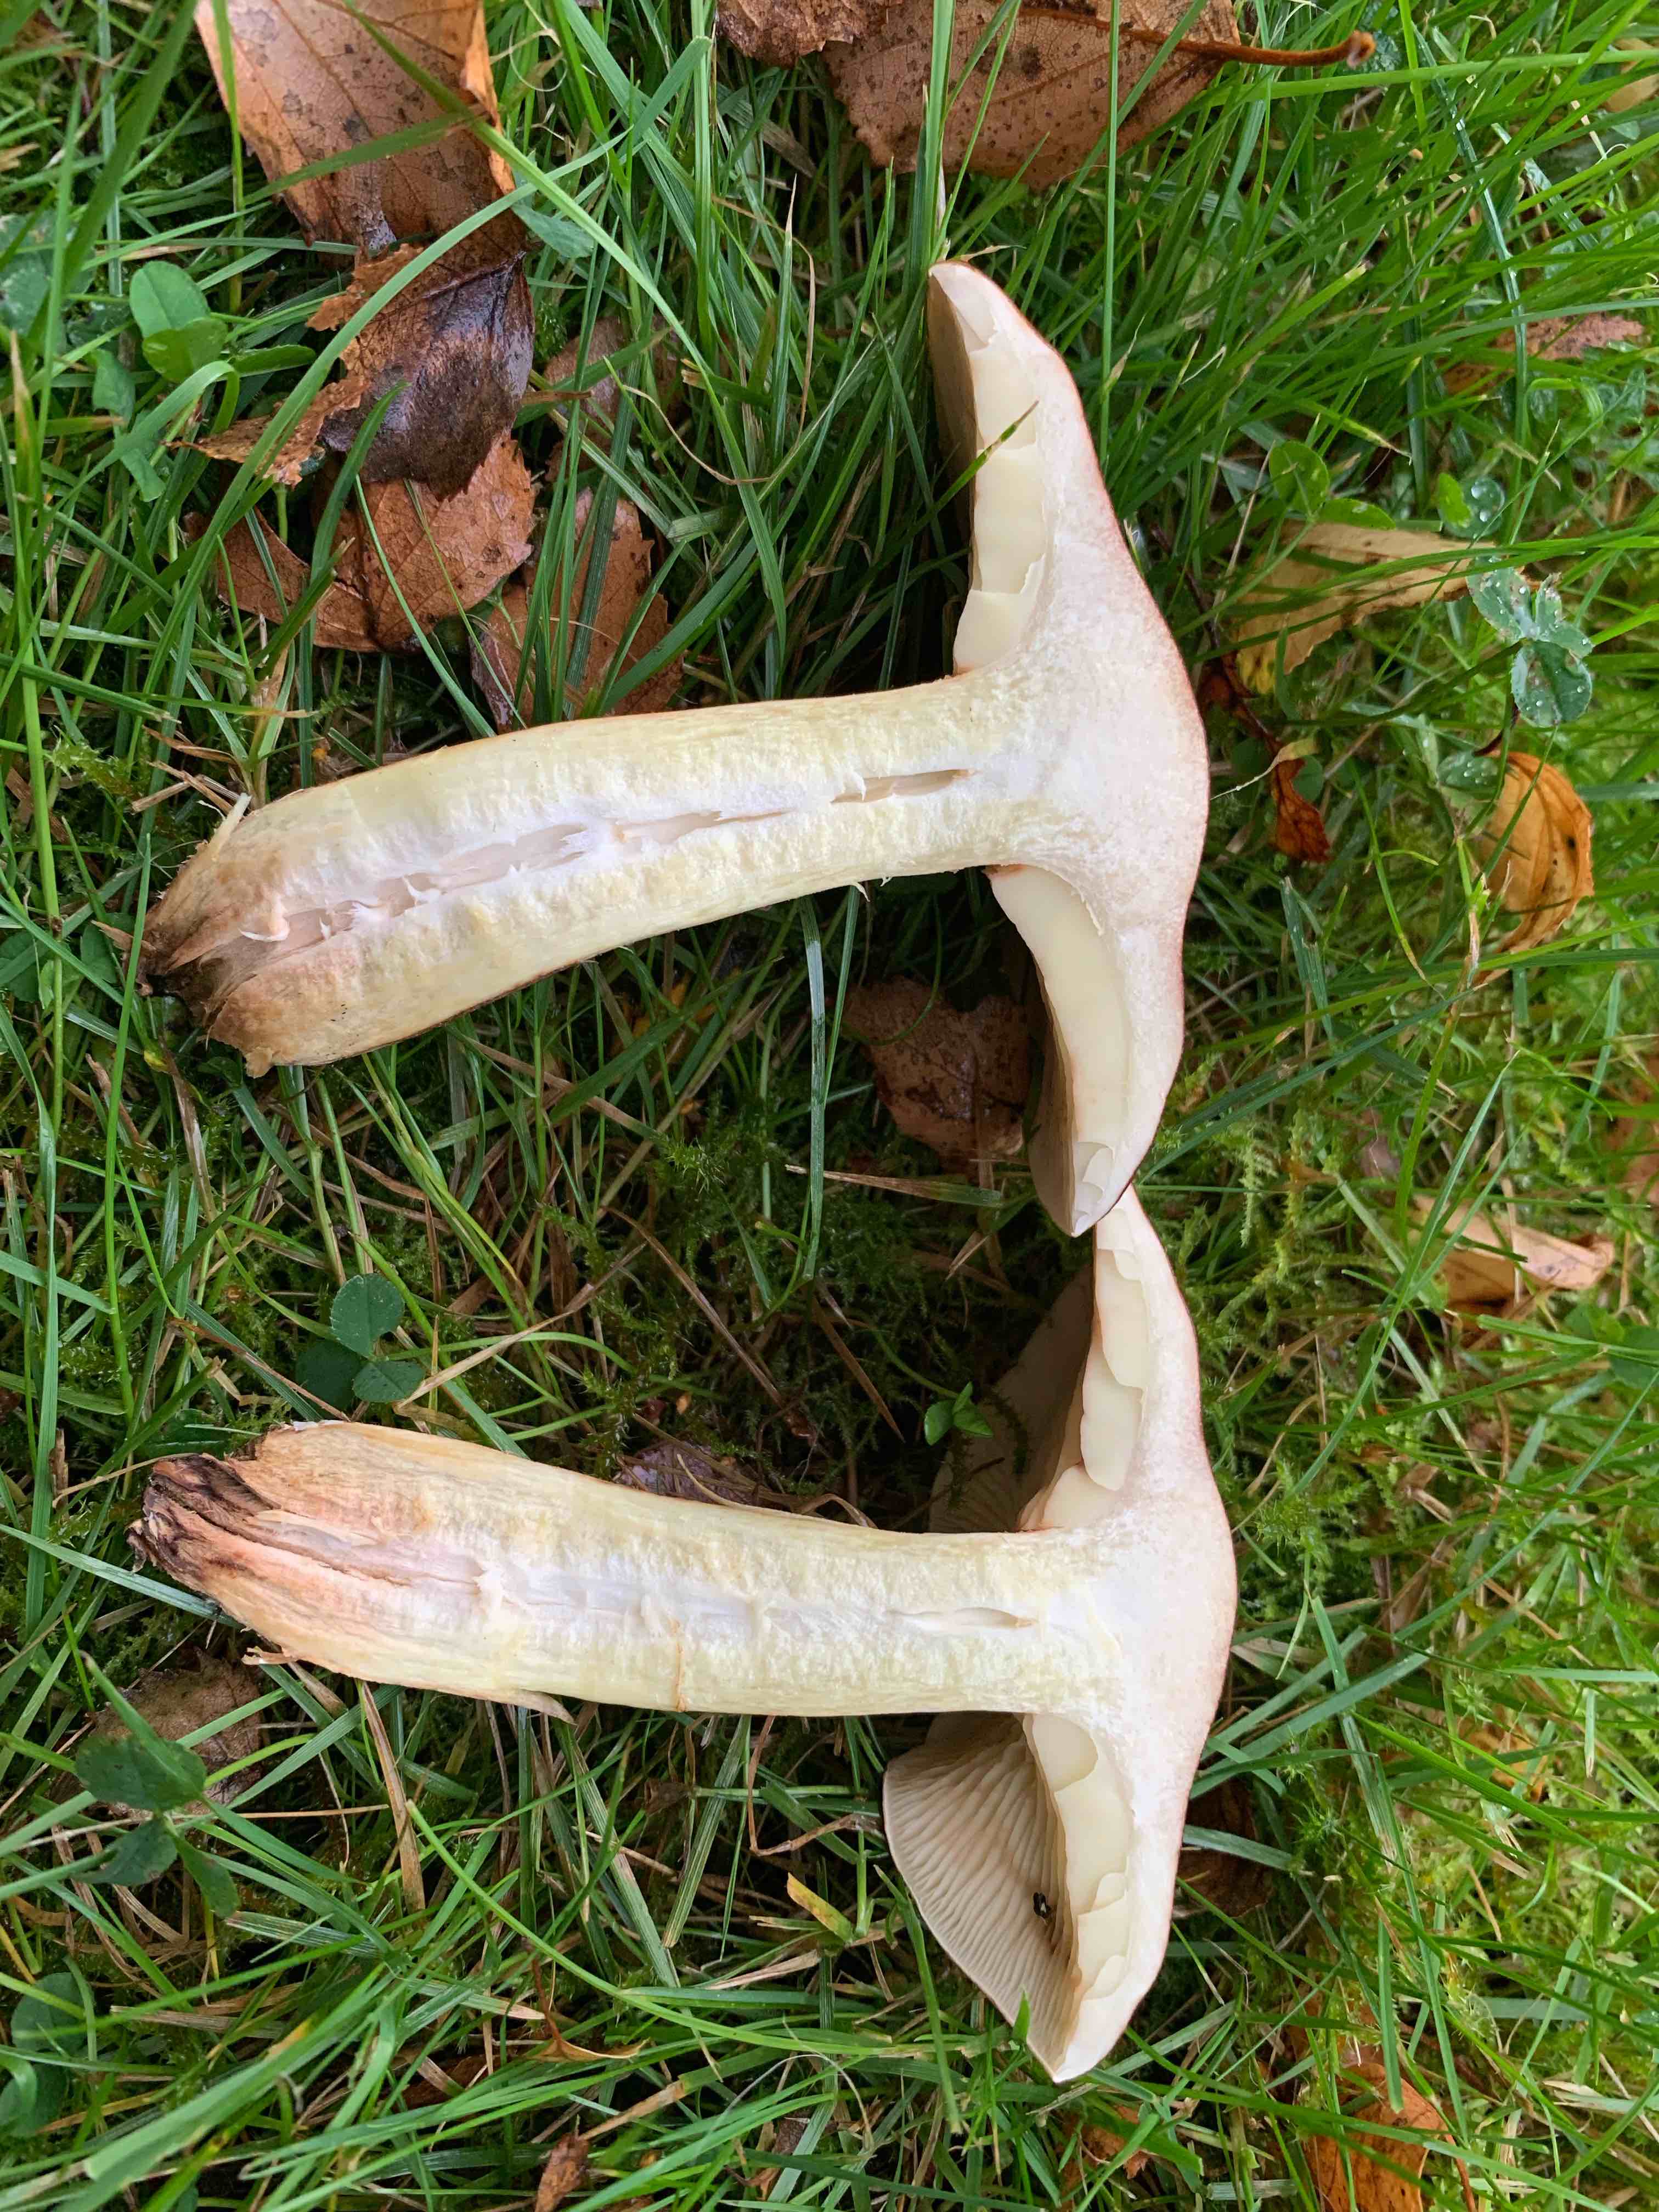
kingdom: Fungi
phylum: Basidiomycota
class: Agaricomycetes
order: Agaricales
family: Tricholomataceae
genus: Tricholoma
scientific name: Tricholoma fulvum
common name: birke-ridderhat
